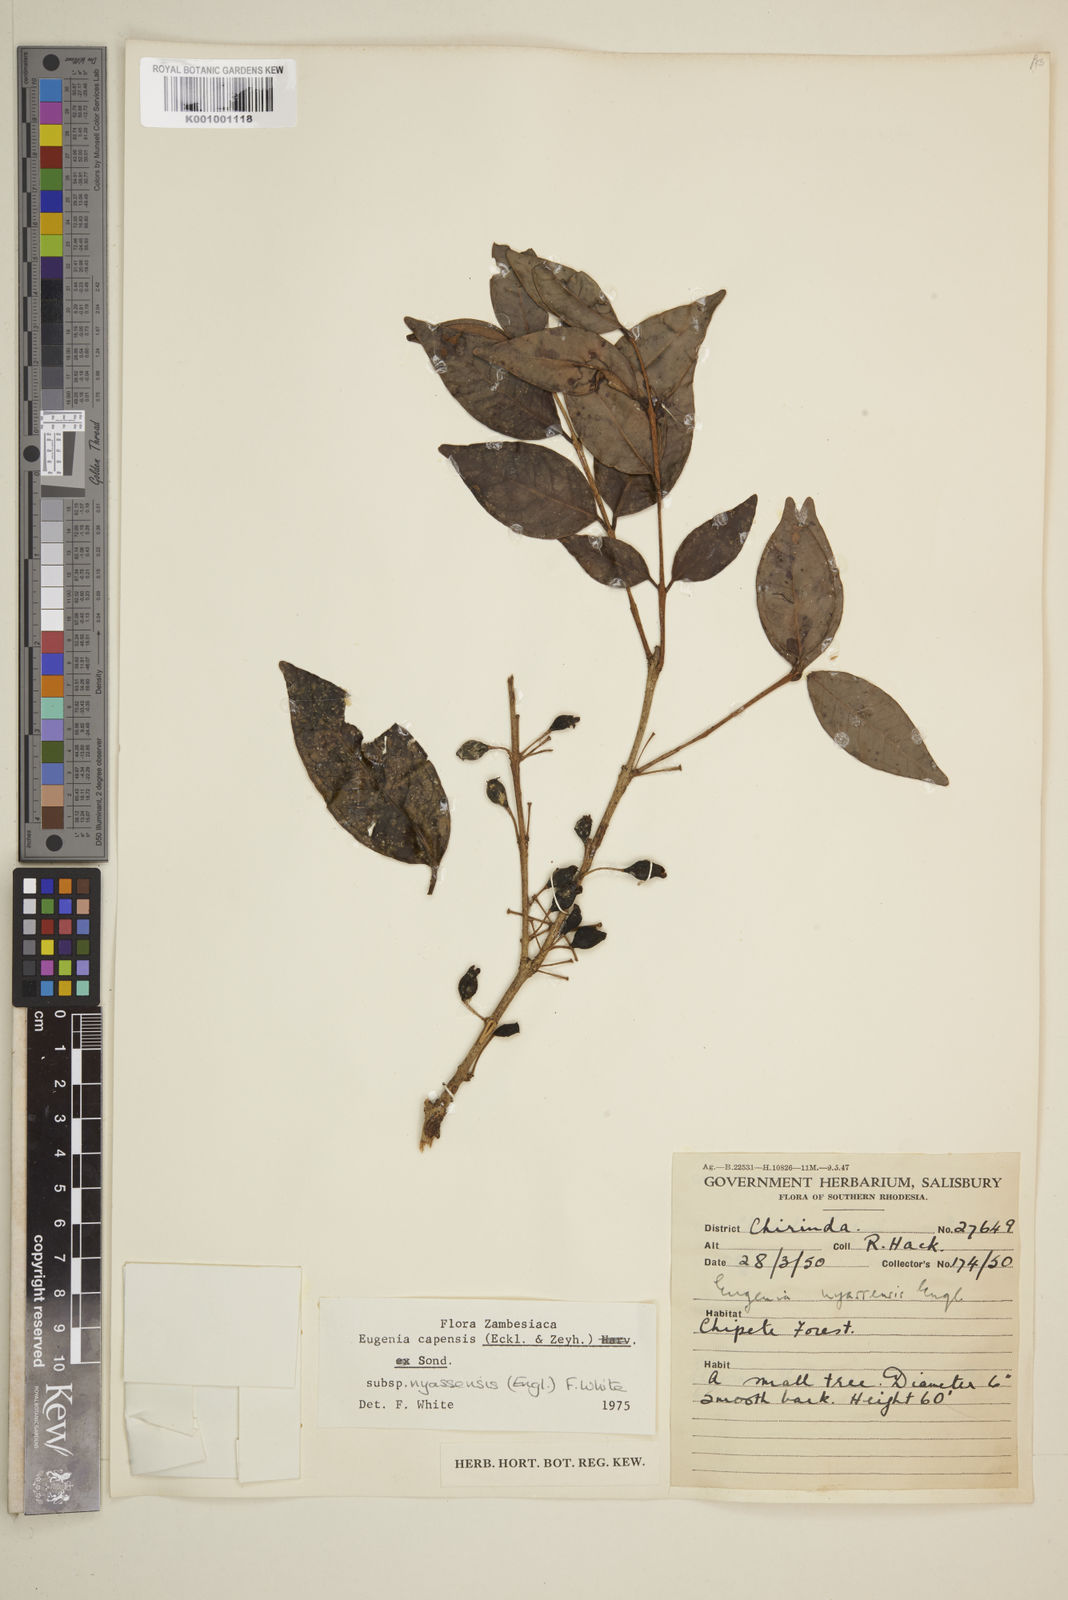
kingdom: Plantae
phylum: Tracheophyta
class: Magnoliopsida
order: Myrtales
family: Myrtaceae
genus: Eugenia
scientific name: Eugenia capensis
